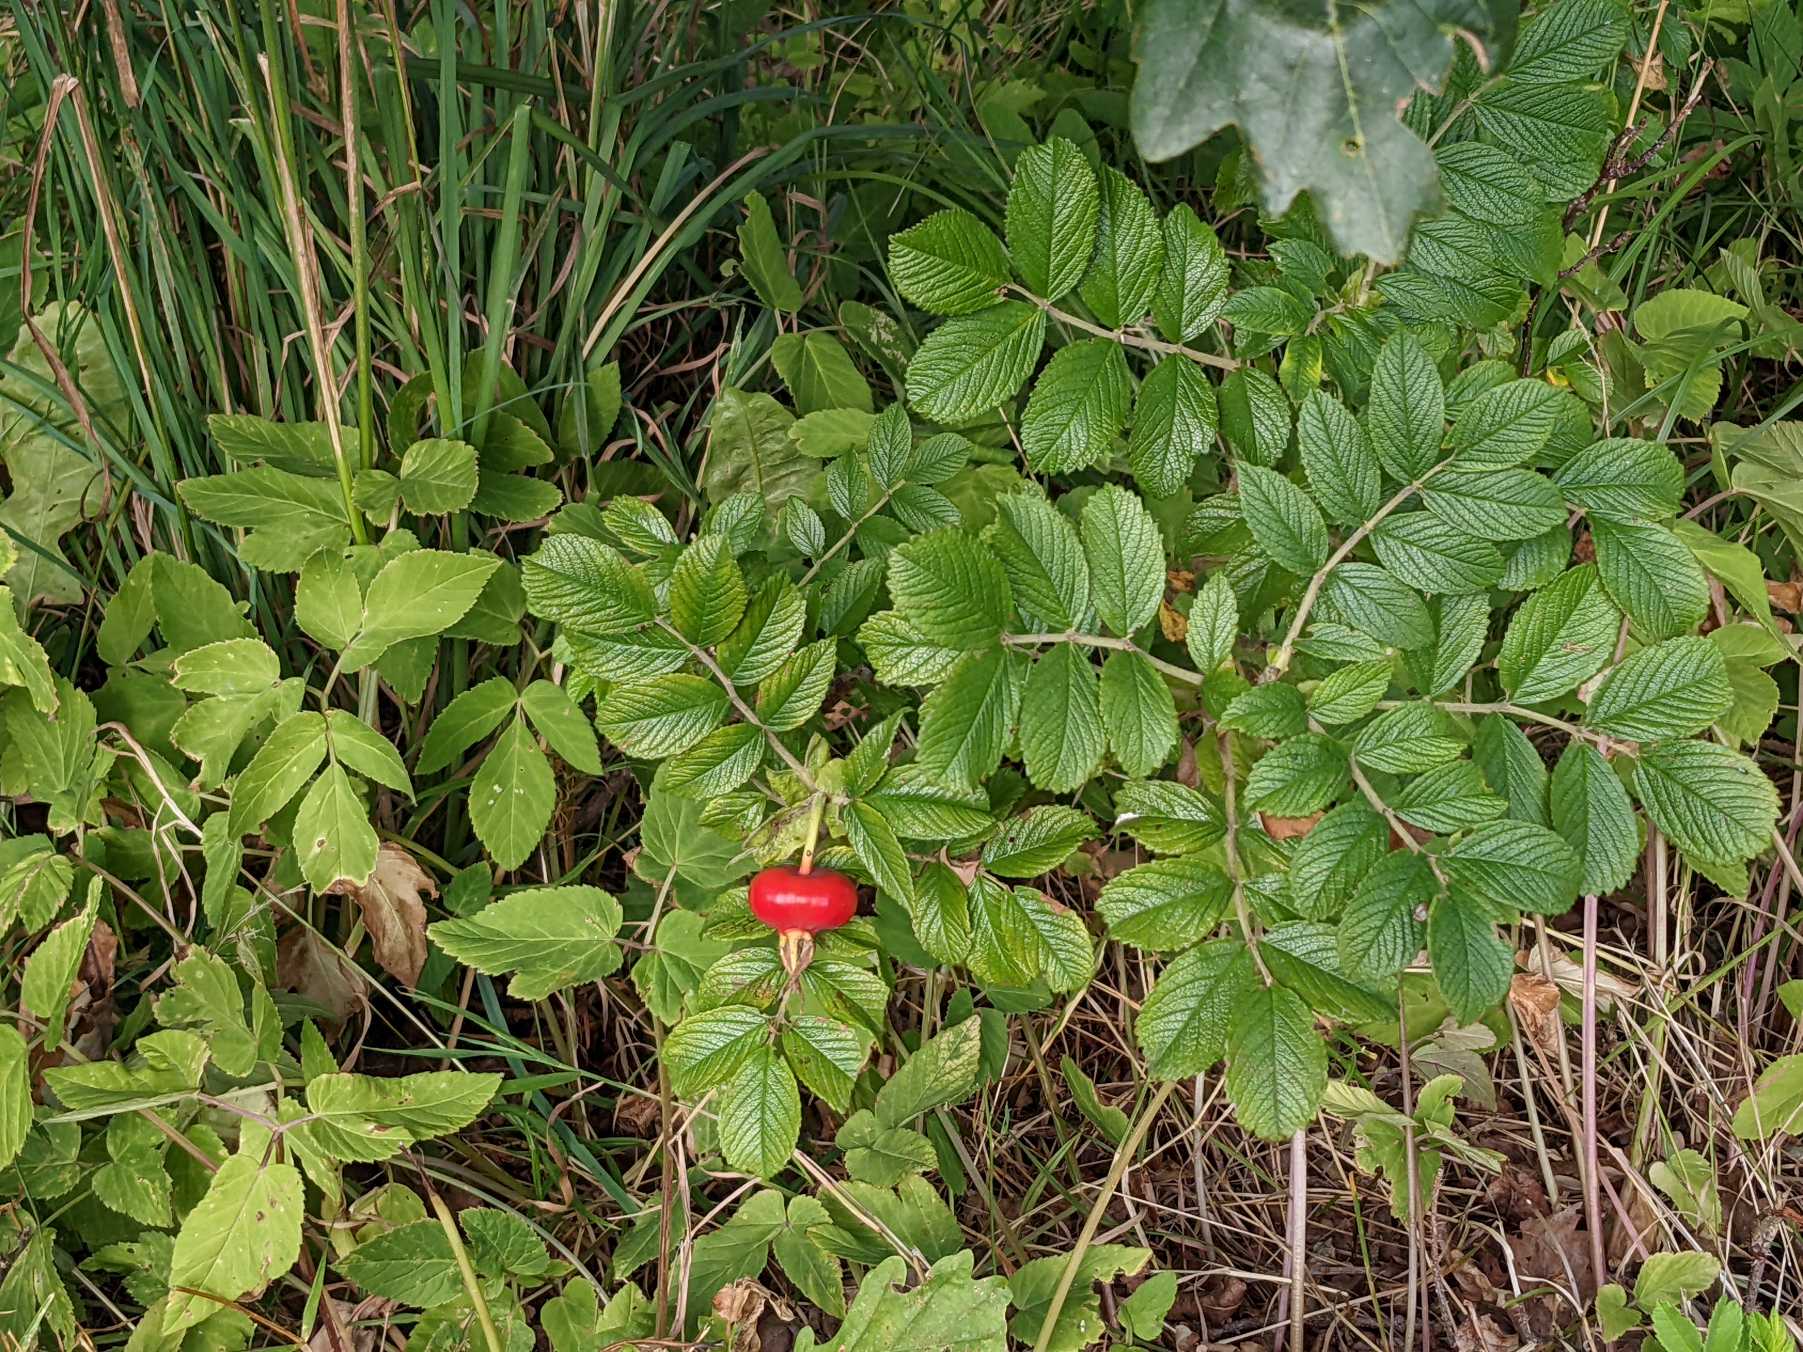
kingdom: Plantae
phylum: Tracheophyta
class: Magnoliopsida
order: Rosales
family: Rosaceae
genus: Rosa
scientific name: Rosa rugosa
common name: Rynket rose
